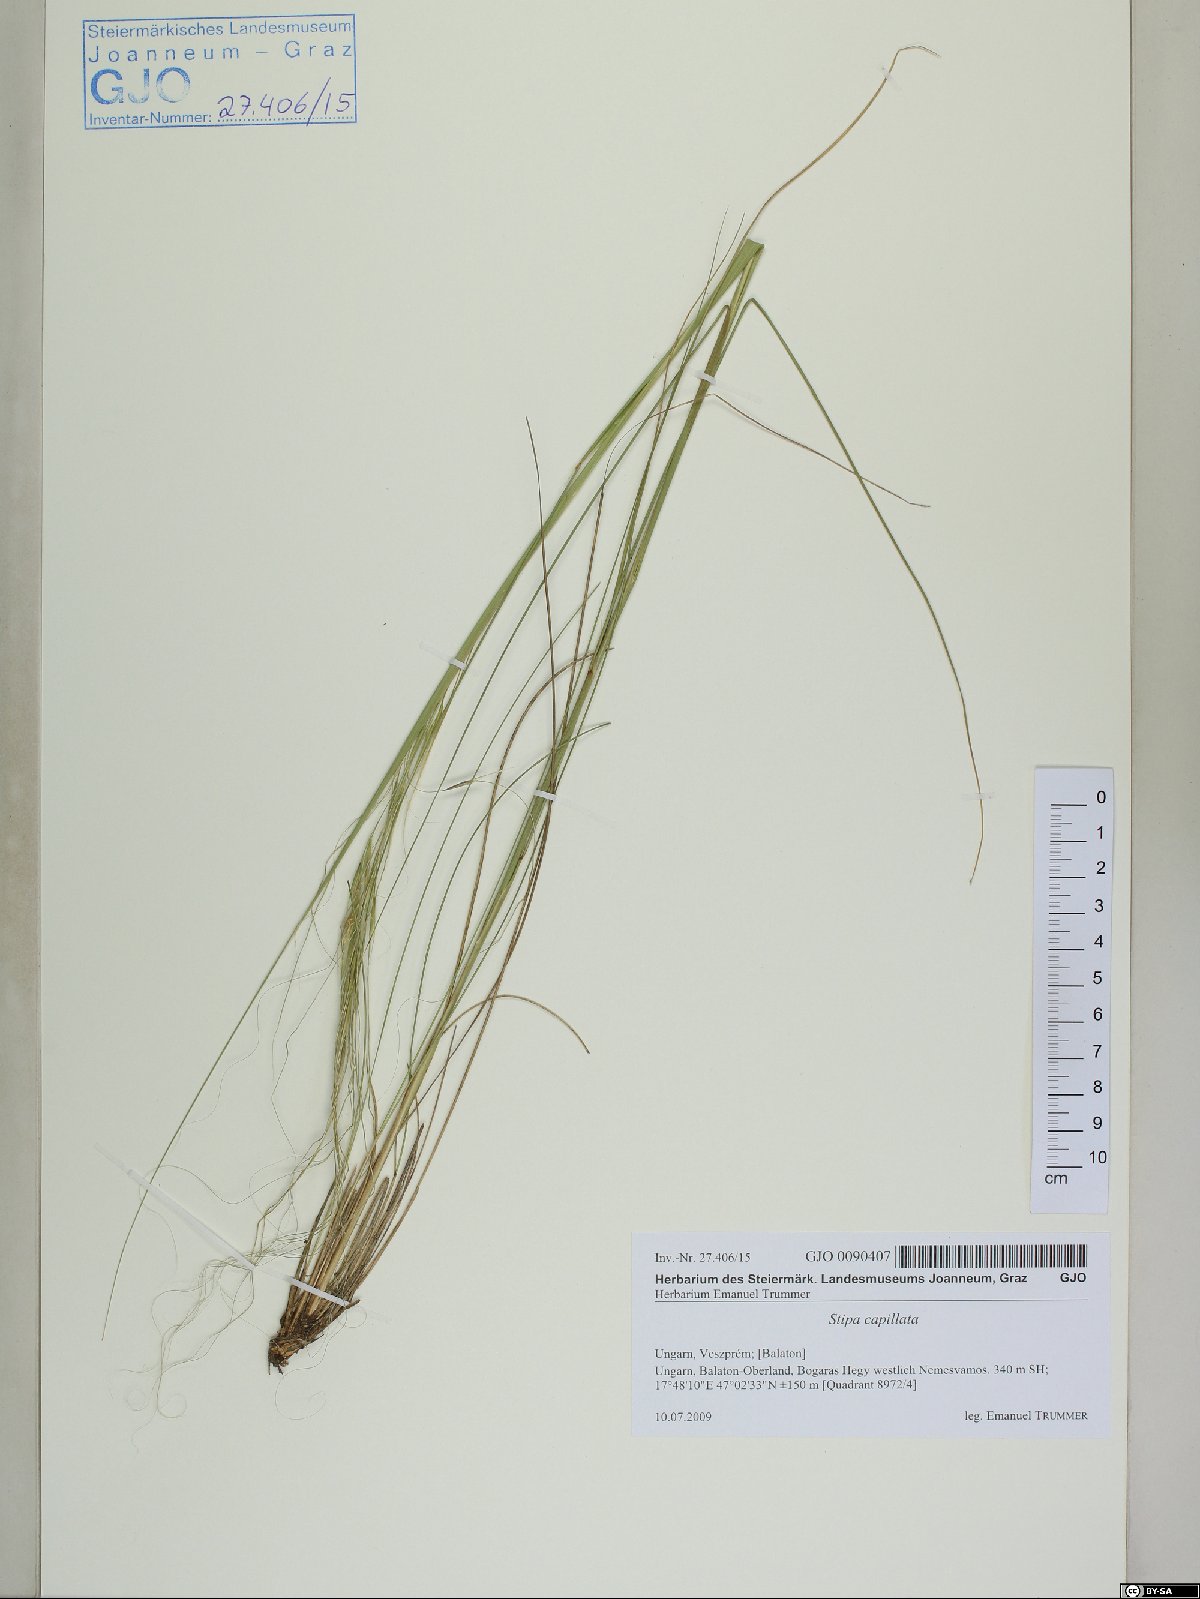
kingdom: Plantae
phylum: Tracheophyta
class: Liliopsida
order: Poales
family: Poaceae
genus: Stipa
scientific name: Stipa capillata
